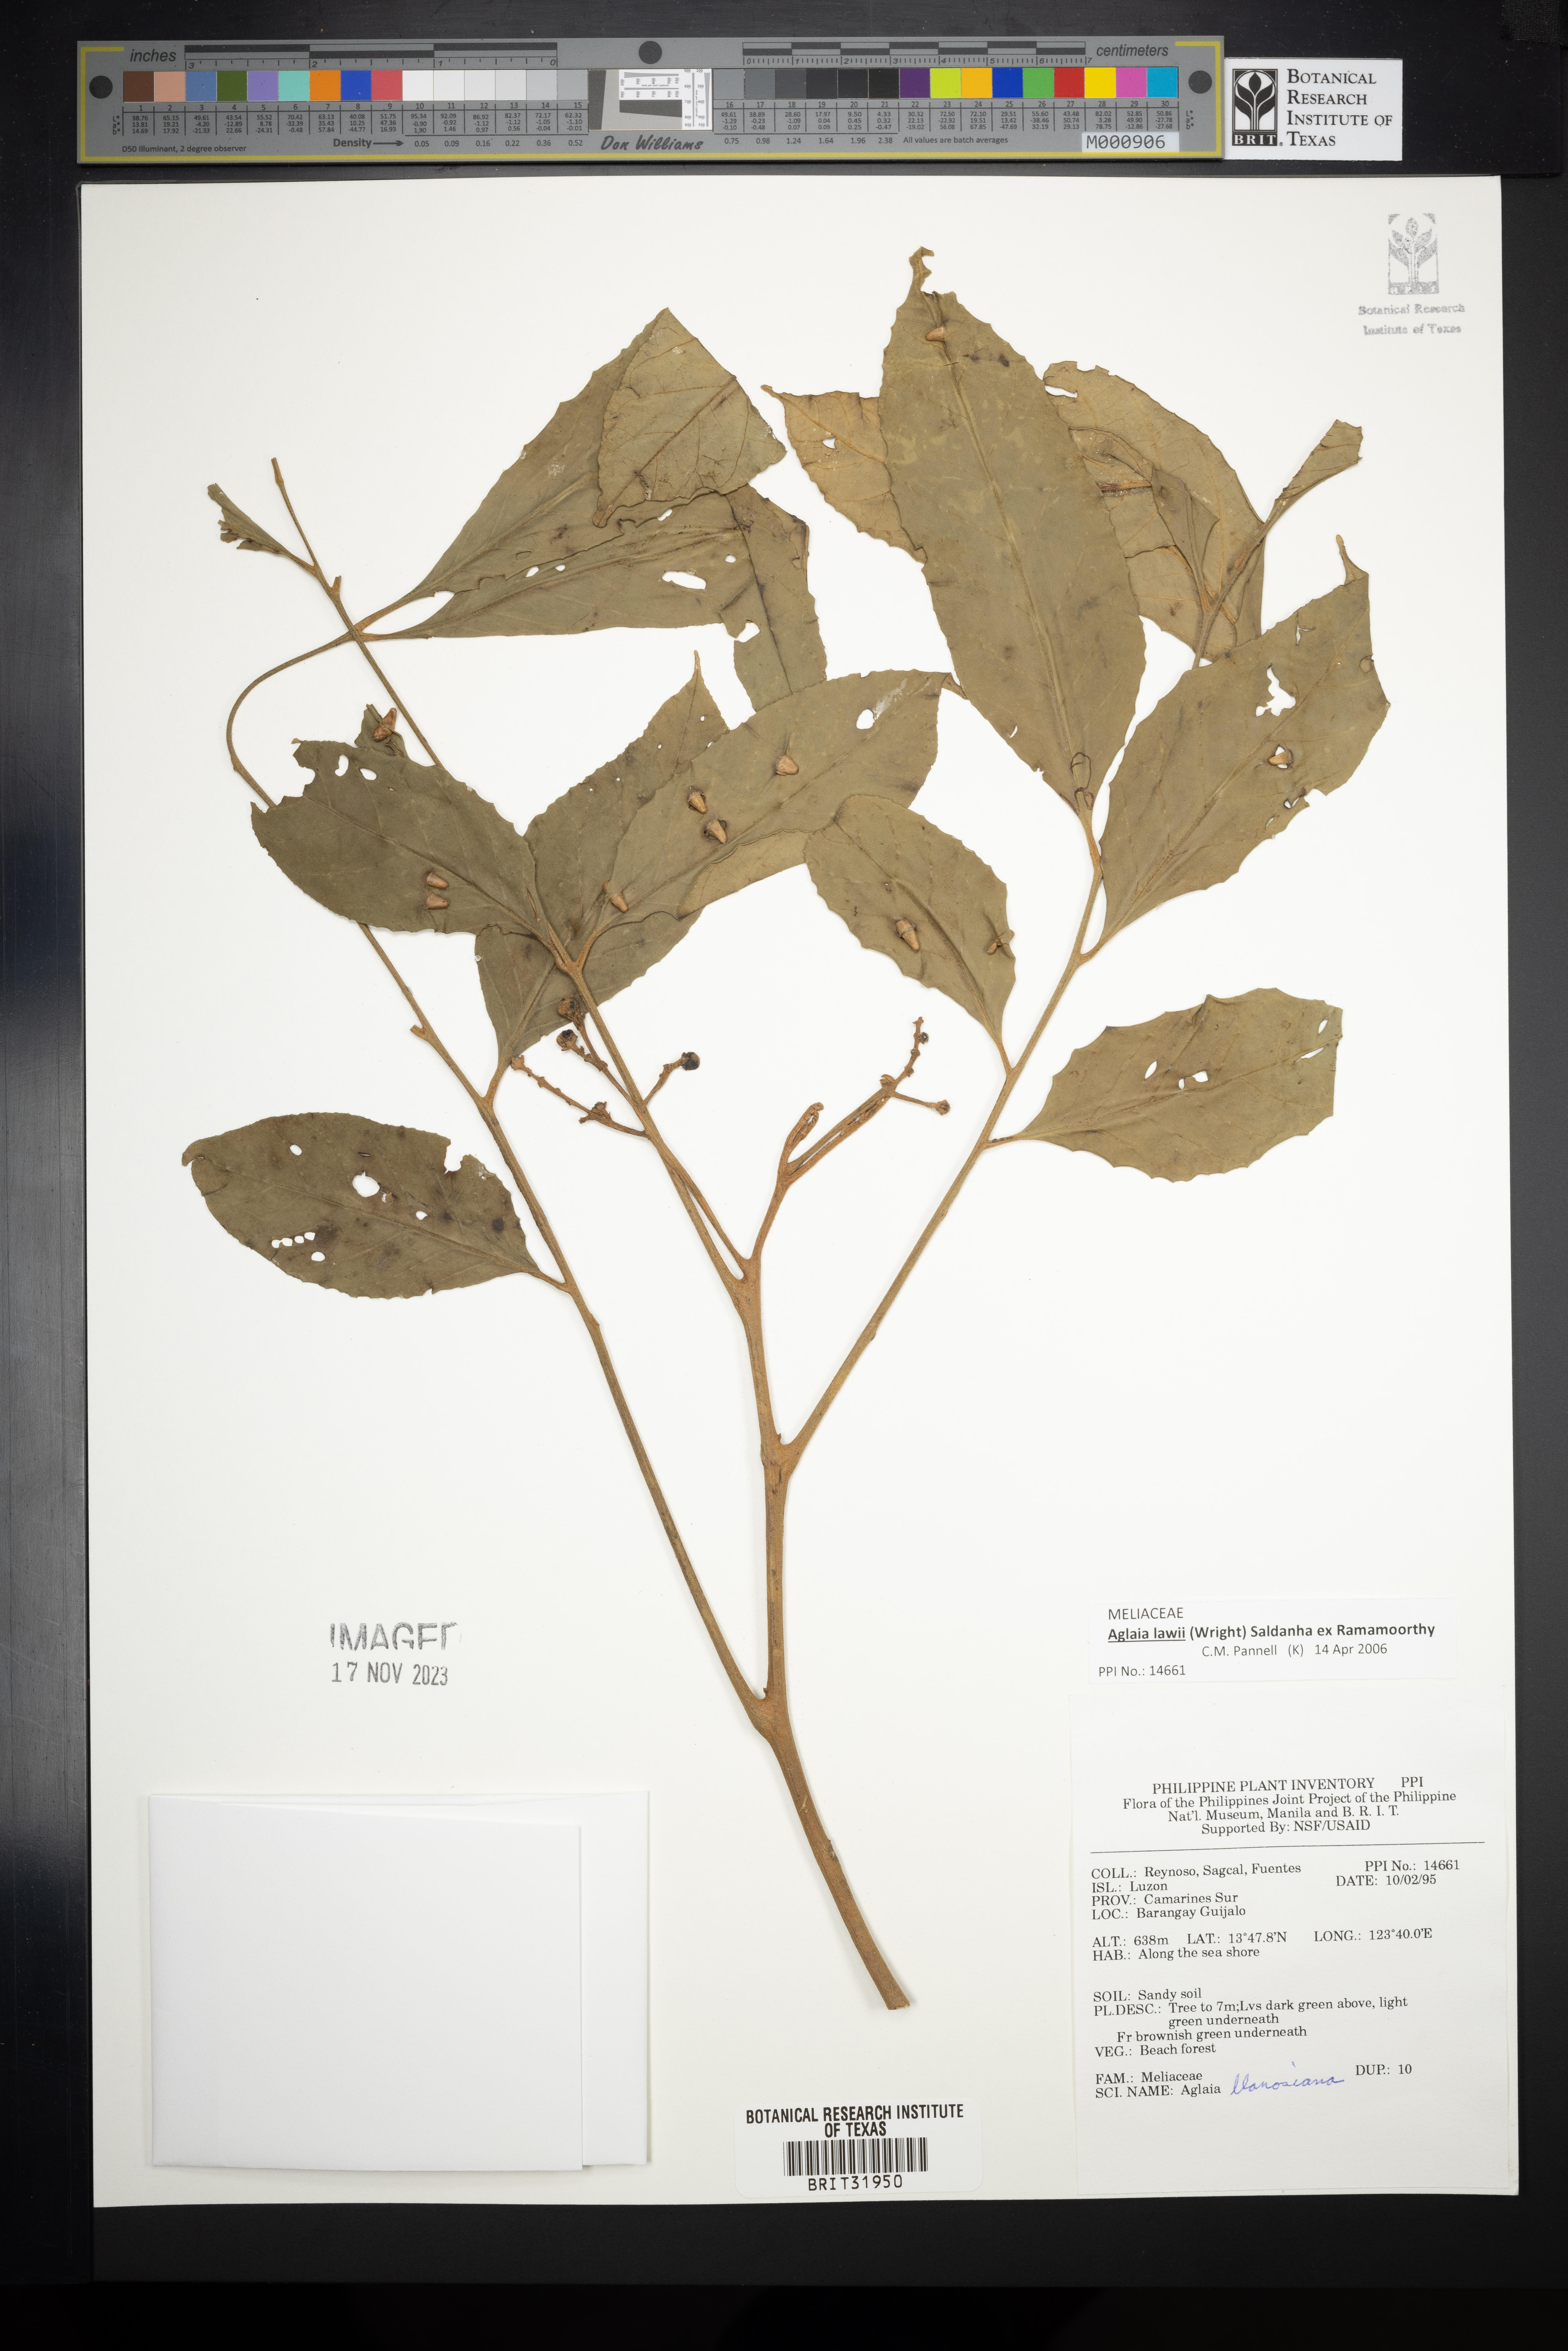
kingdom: Plantae
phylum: Tracheophyta
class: Magnoliopsida
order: Sapindales
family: Meliaceae
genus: Aglaia
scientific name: Aglaia rimosa
